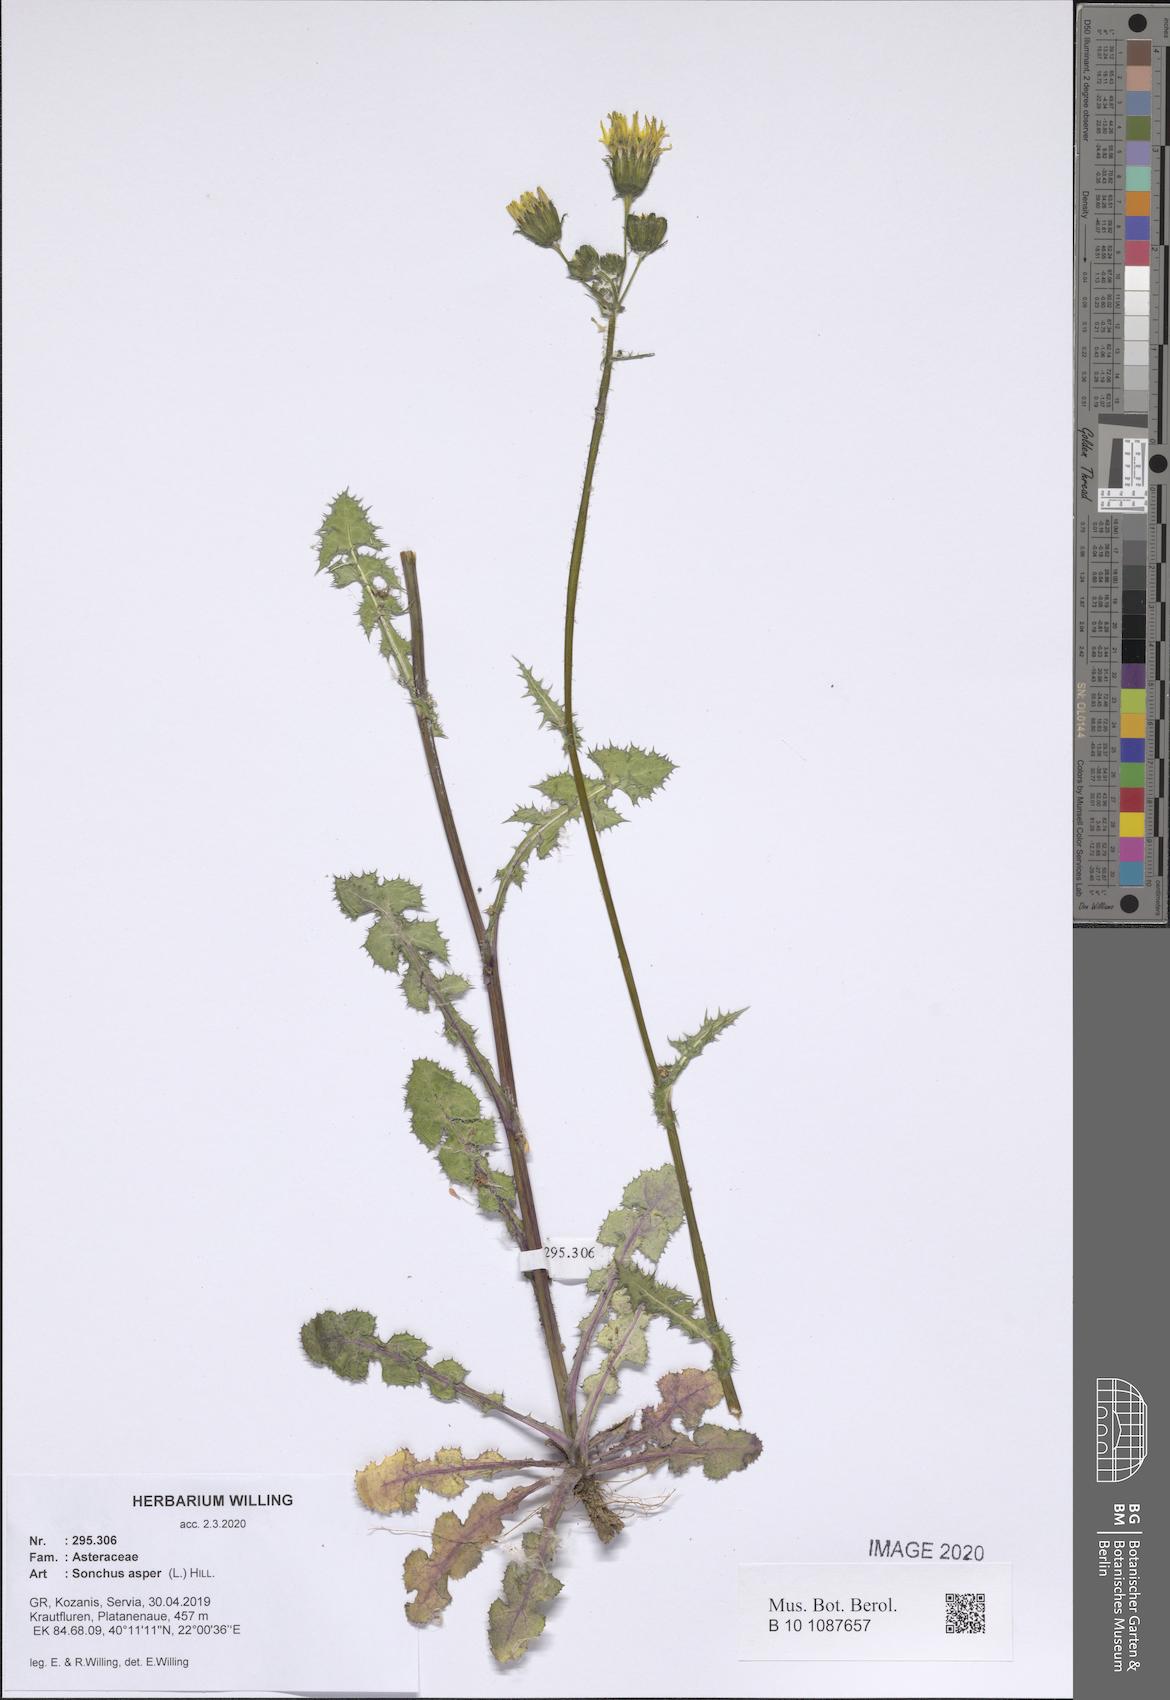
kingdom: Plantae
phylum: Tracheophyta
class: Magnoliopsida
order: Asterales
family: Asteraceae
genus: Sonchus
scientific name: Sonchus asper
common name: Prickly sow-thistle
